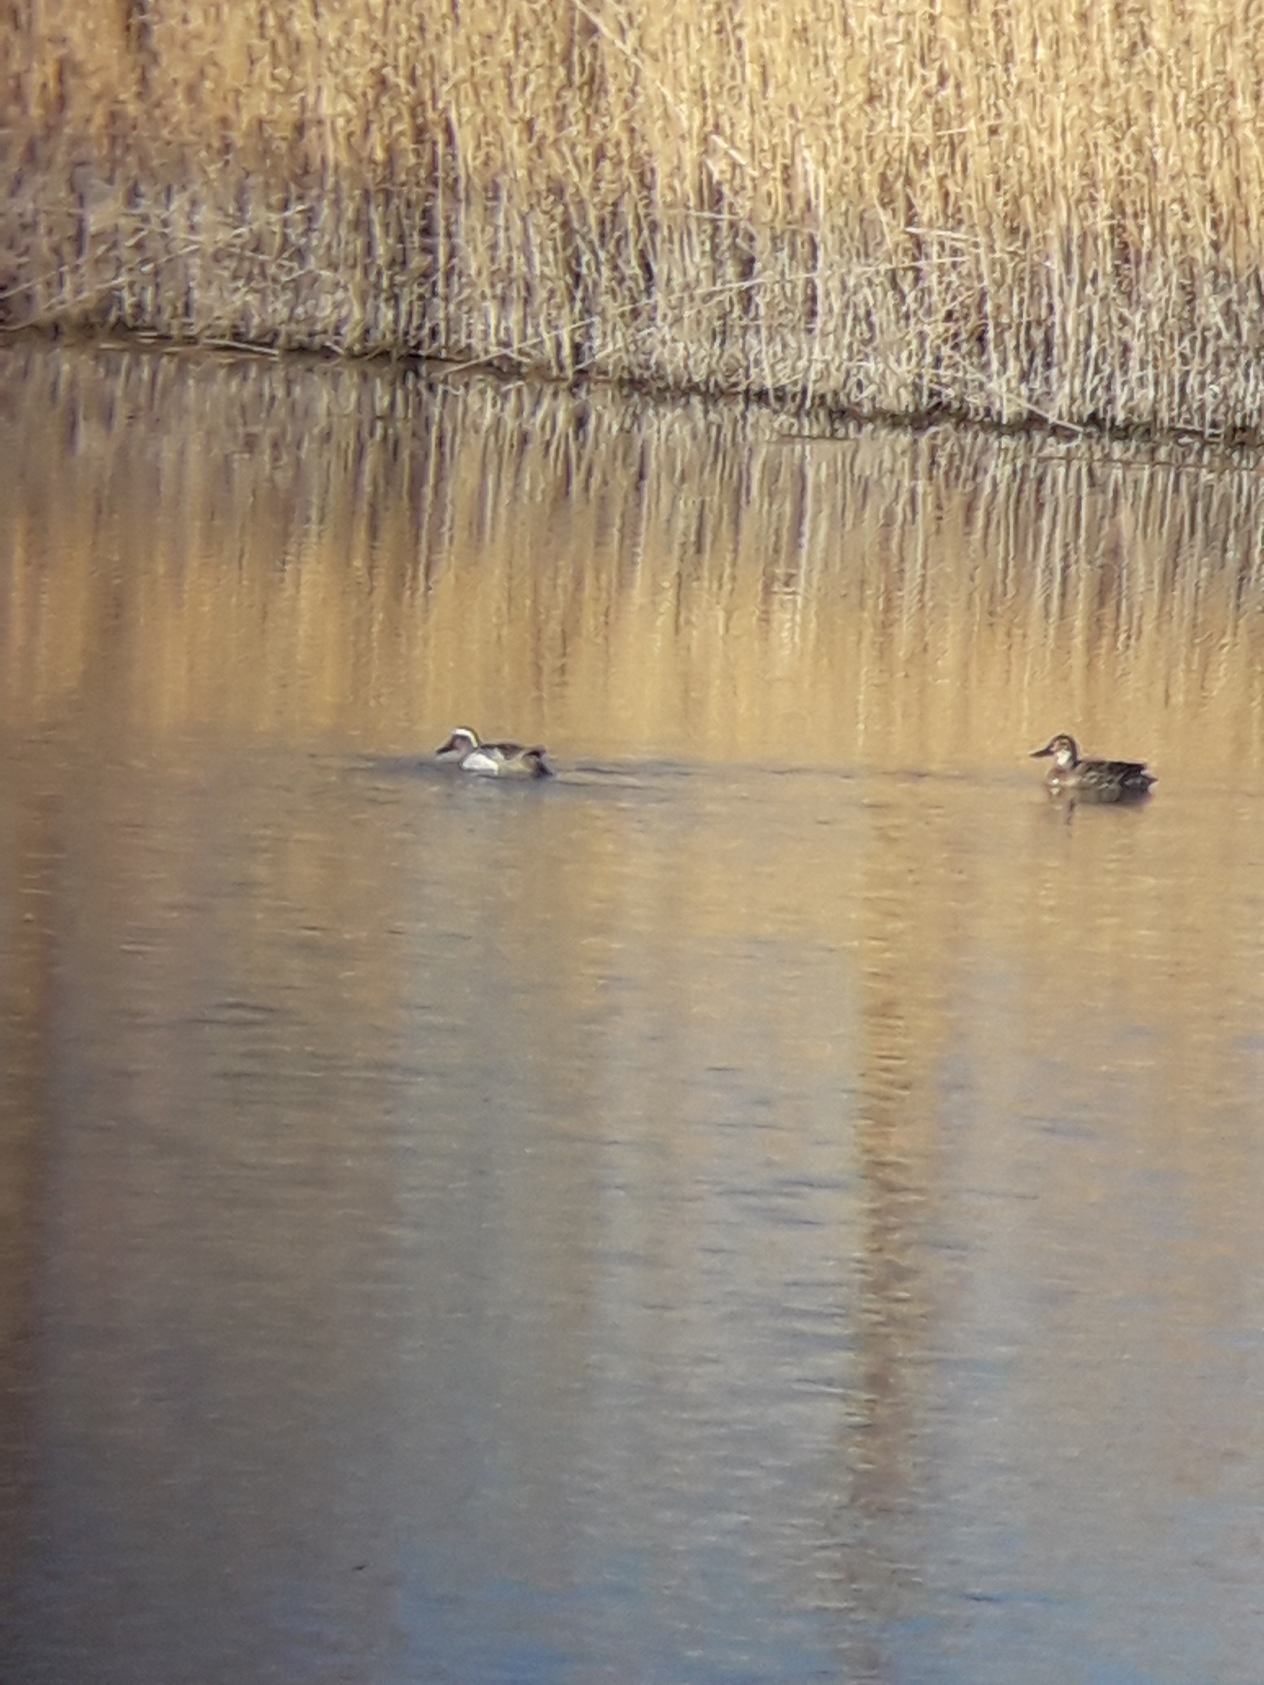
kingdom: Animalia
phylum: Chordata
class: Aves
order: Anseriformes
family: Anatidae
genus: Spatula
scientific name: Spatula querquedula
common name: Atlingand
